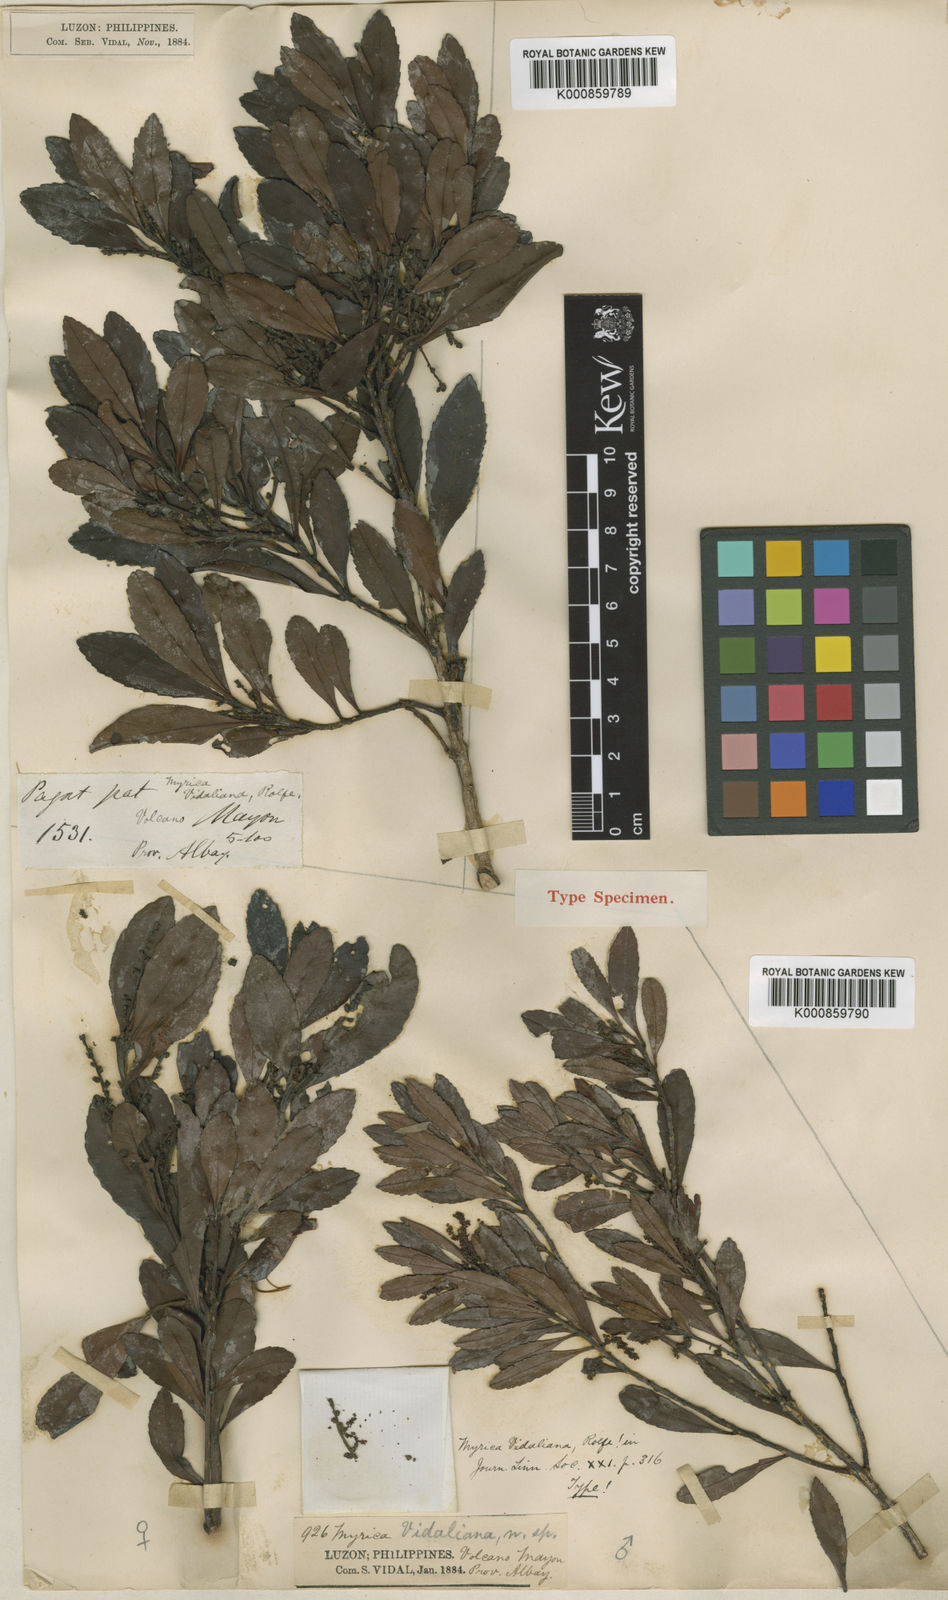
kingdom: Plantae
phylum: Tracheophyta
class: Magnoliopsida
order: Fagales
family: Myricaceae
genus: Morella
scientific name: Morella javanica
